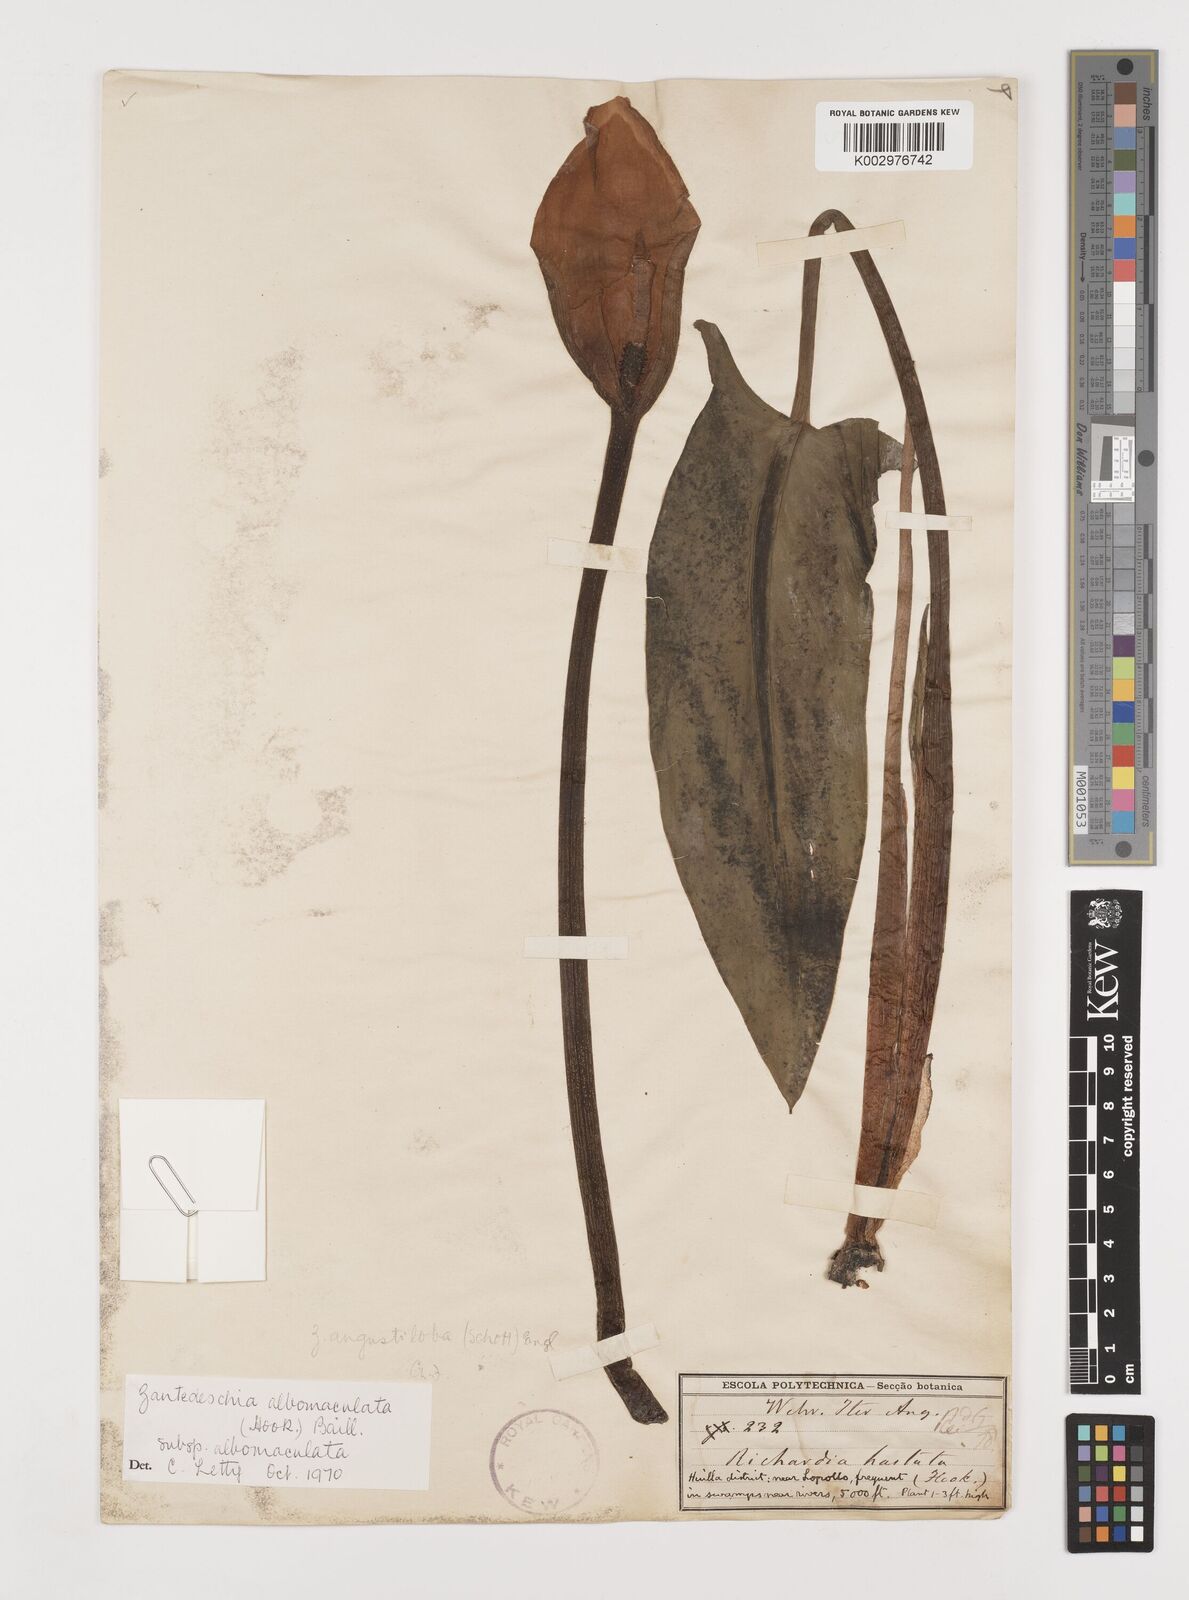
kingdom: Plantae
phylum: Tracheophyta
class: Liliopsida
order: Alismatales
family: Araceae
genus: Zantedeschia
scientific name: Zantedeschia albomaculata
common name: Spotted calla lily
